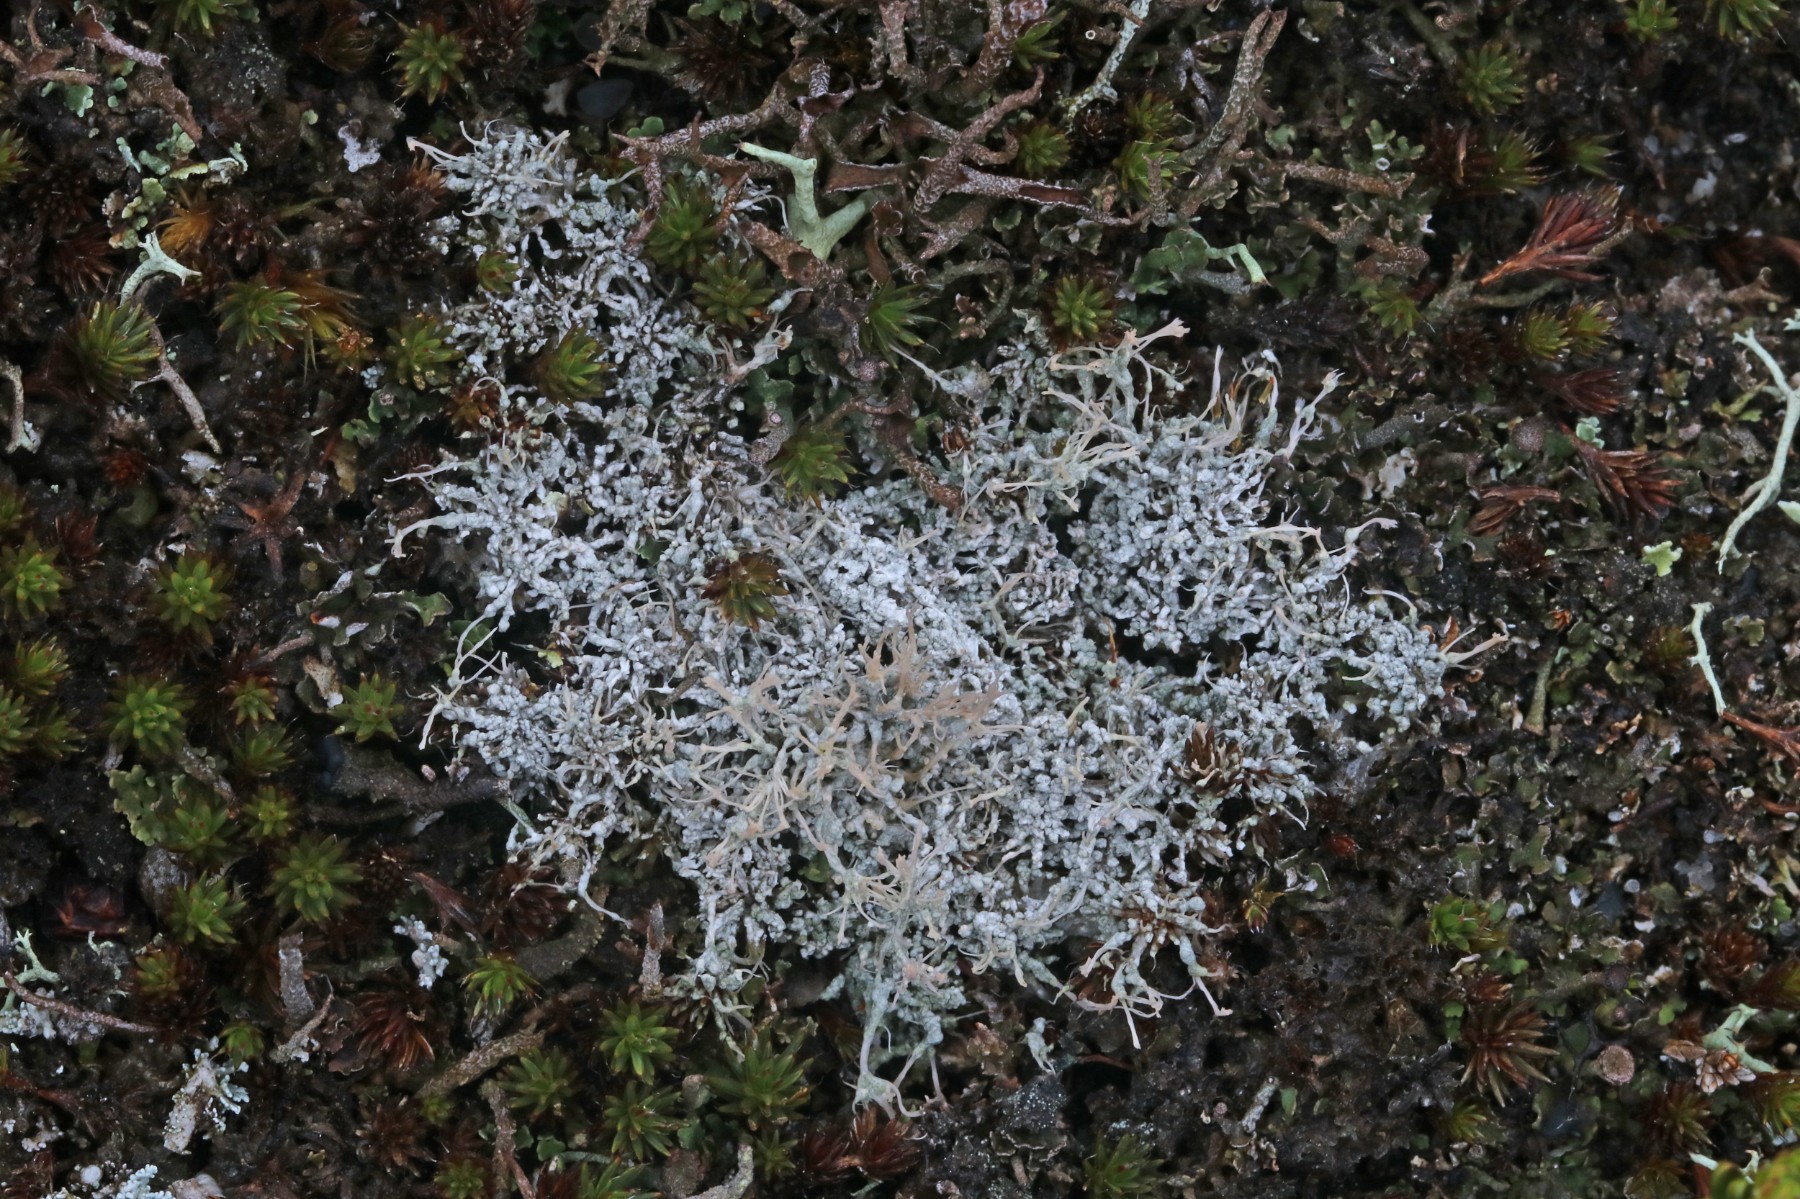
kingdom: Fungi
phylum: Ascomycota
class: Lecanoromycetes
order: Pertusariales
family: Ochrolechiaceae
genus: Ochrolechia
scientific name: Ochrolechia frigida
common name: fjeld-blegskivelav
